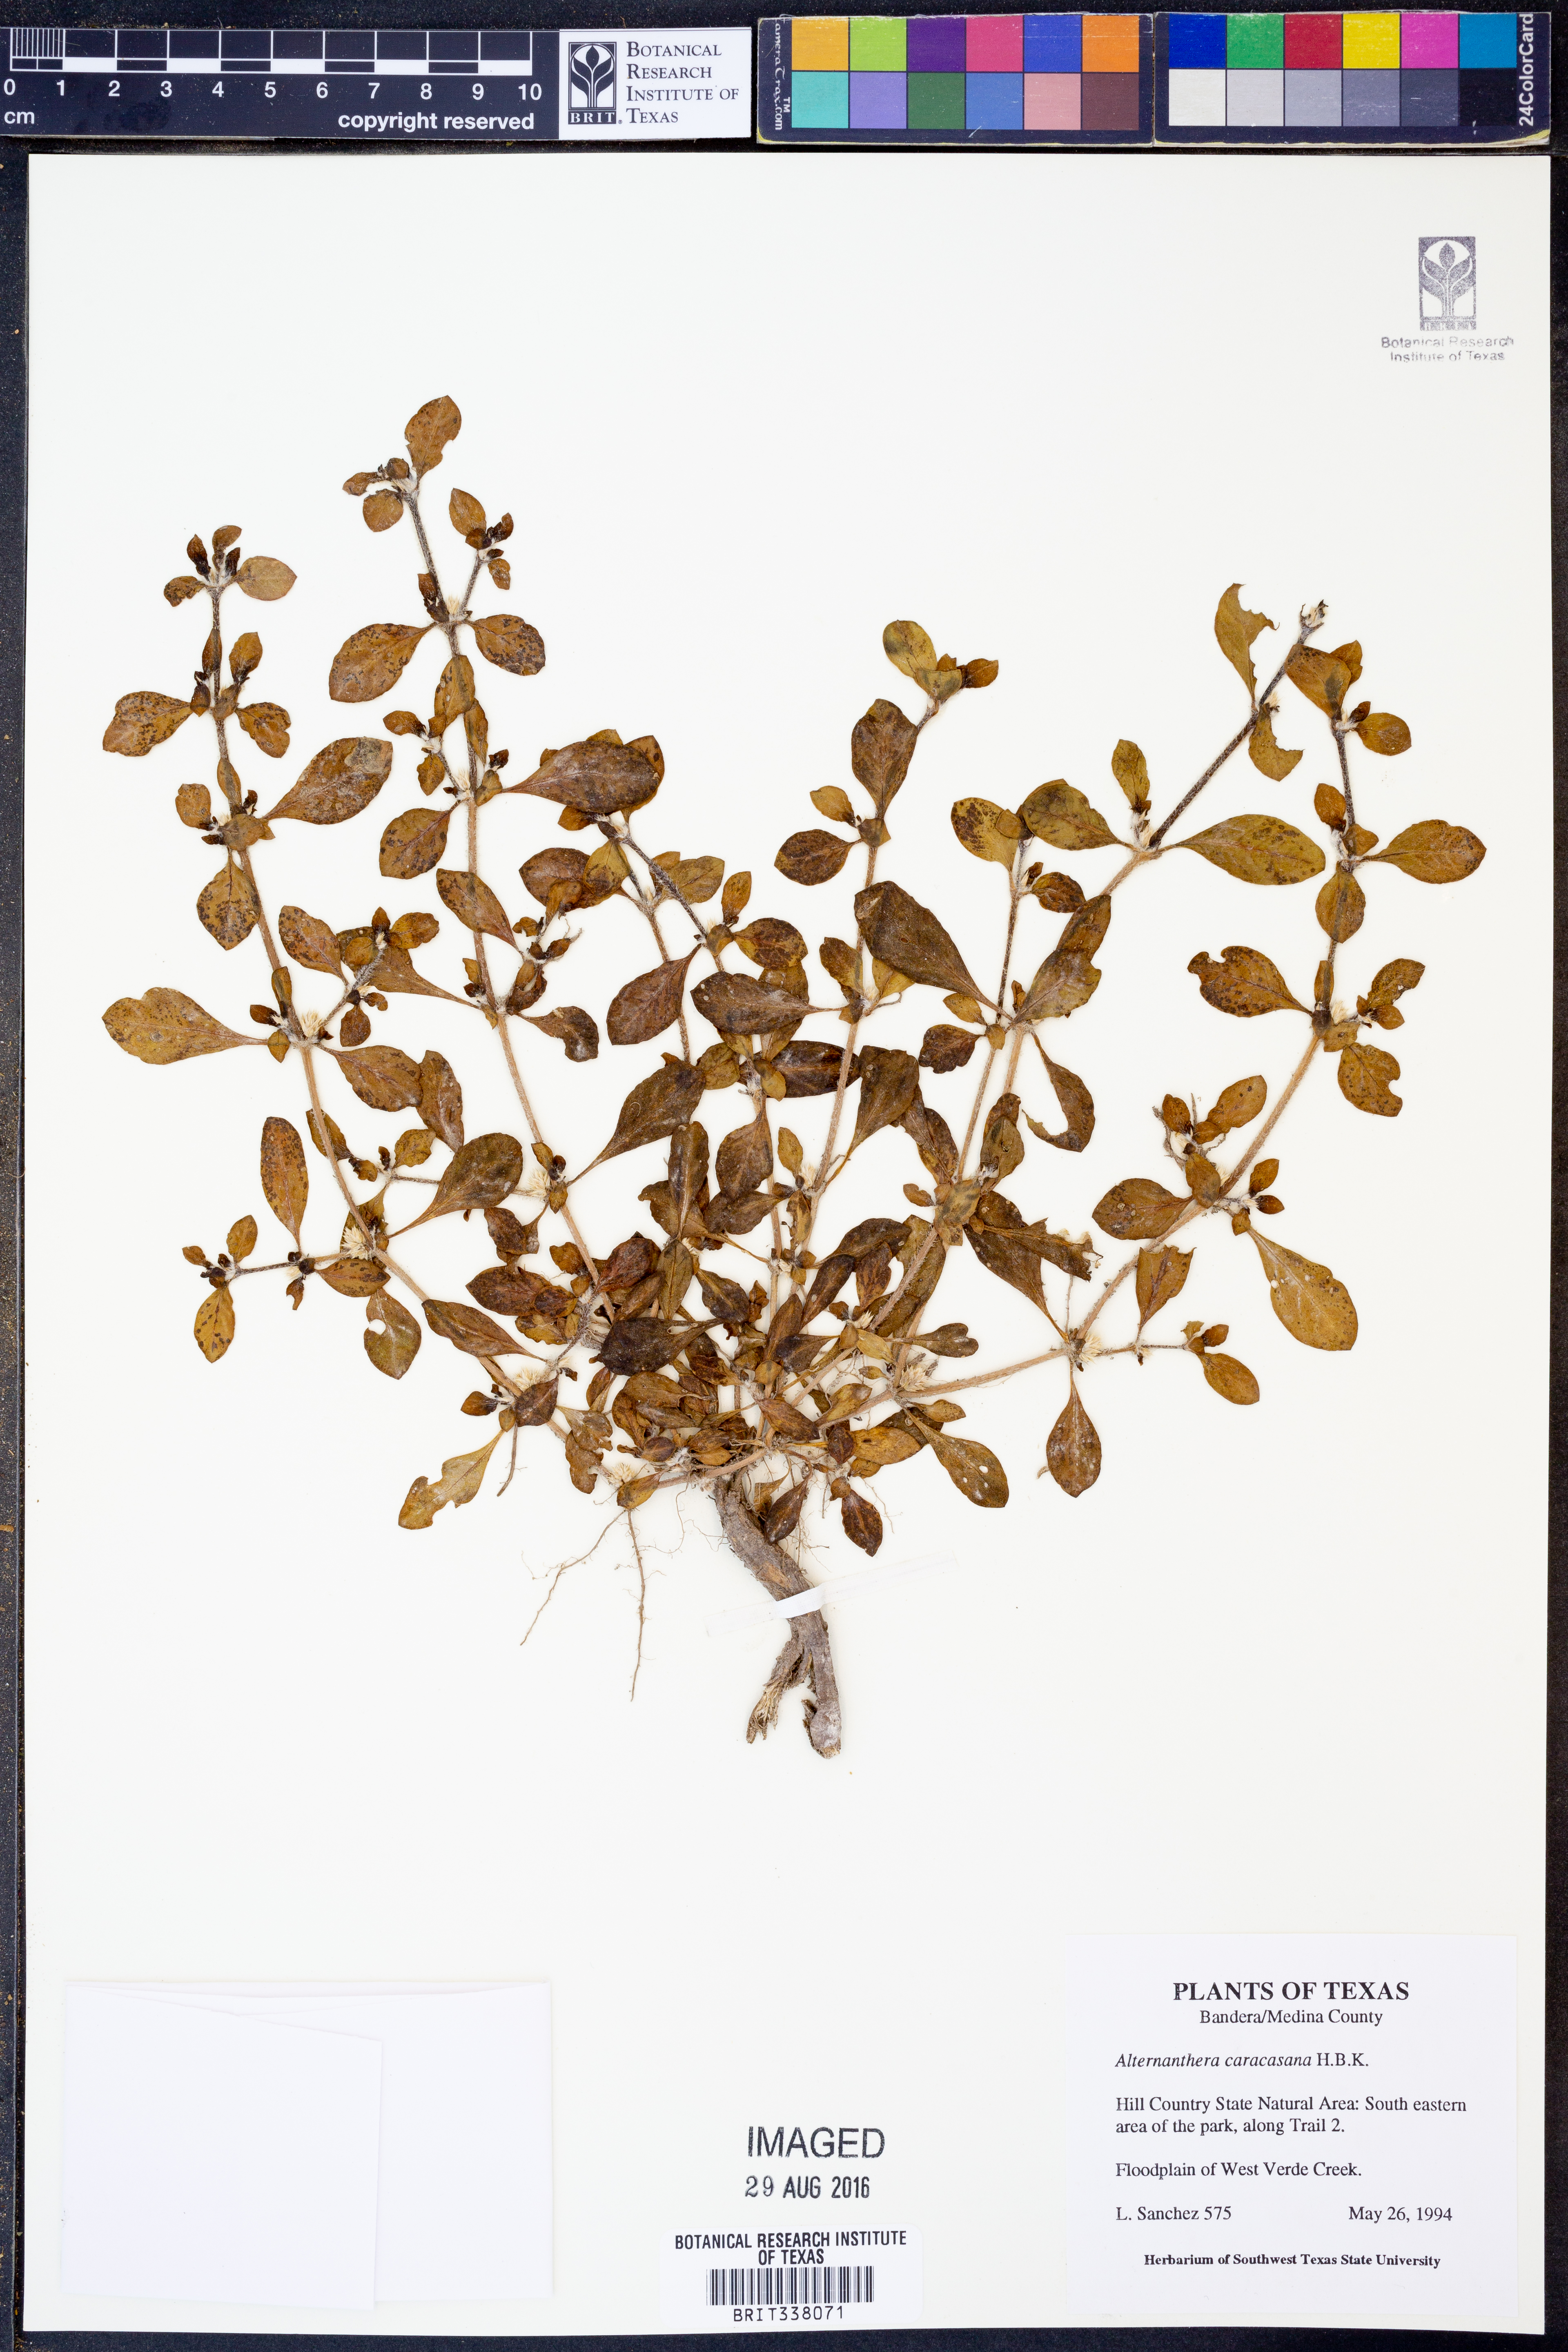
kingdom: Plantae
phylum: Tracheophyta
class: Magnoliopsida
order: Caryophyllales
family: Amaranthaceae
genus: Alternanthera
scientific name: Alternanthera caracasana
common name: Washerwoman
